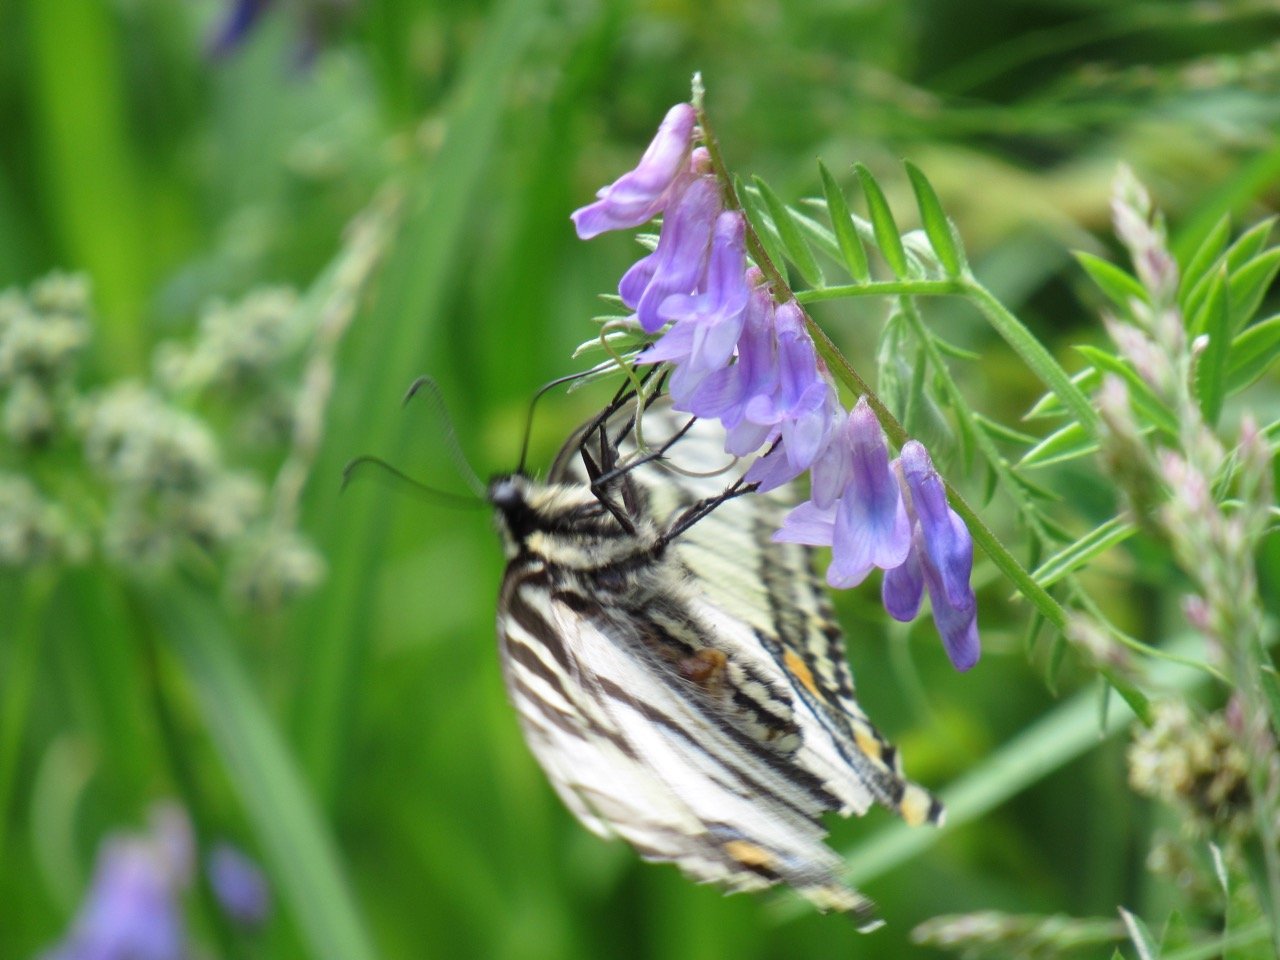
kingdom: Animalia
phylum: Arthropoda
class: Insecta
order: Lepidoptera
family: Papilionidae
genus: Pterourus
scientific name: Pterourus canadensis
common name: Canadian Tiger Swallowtail
